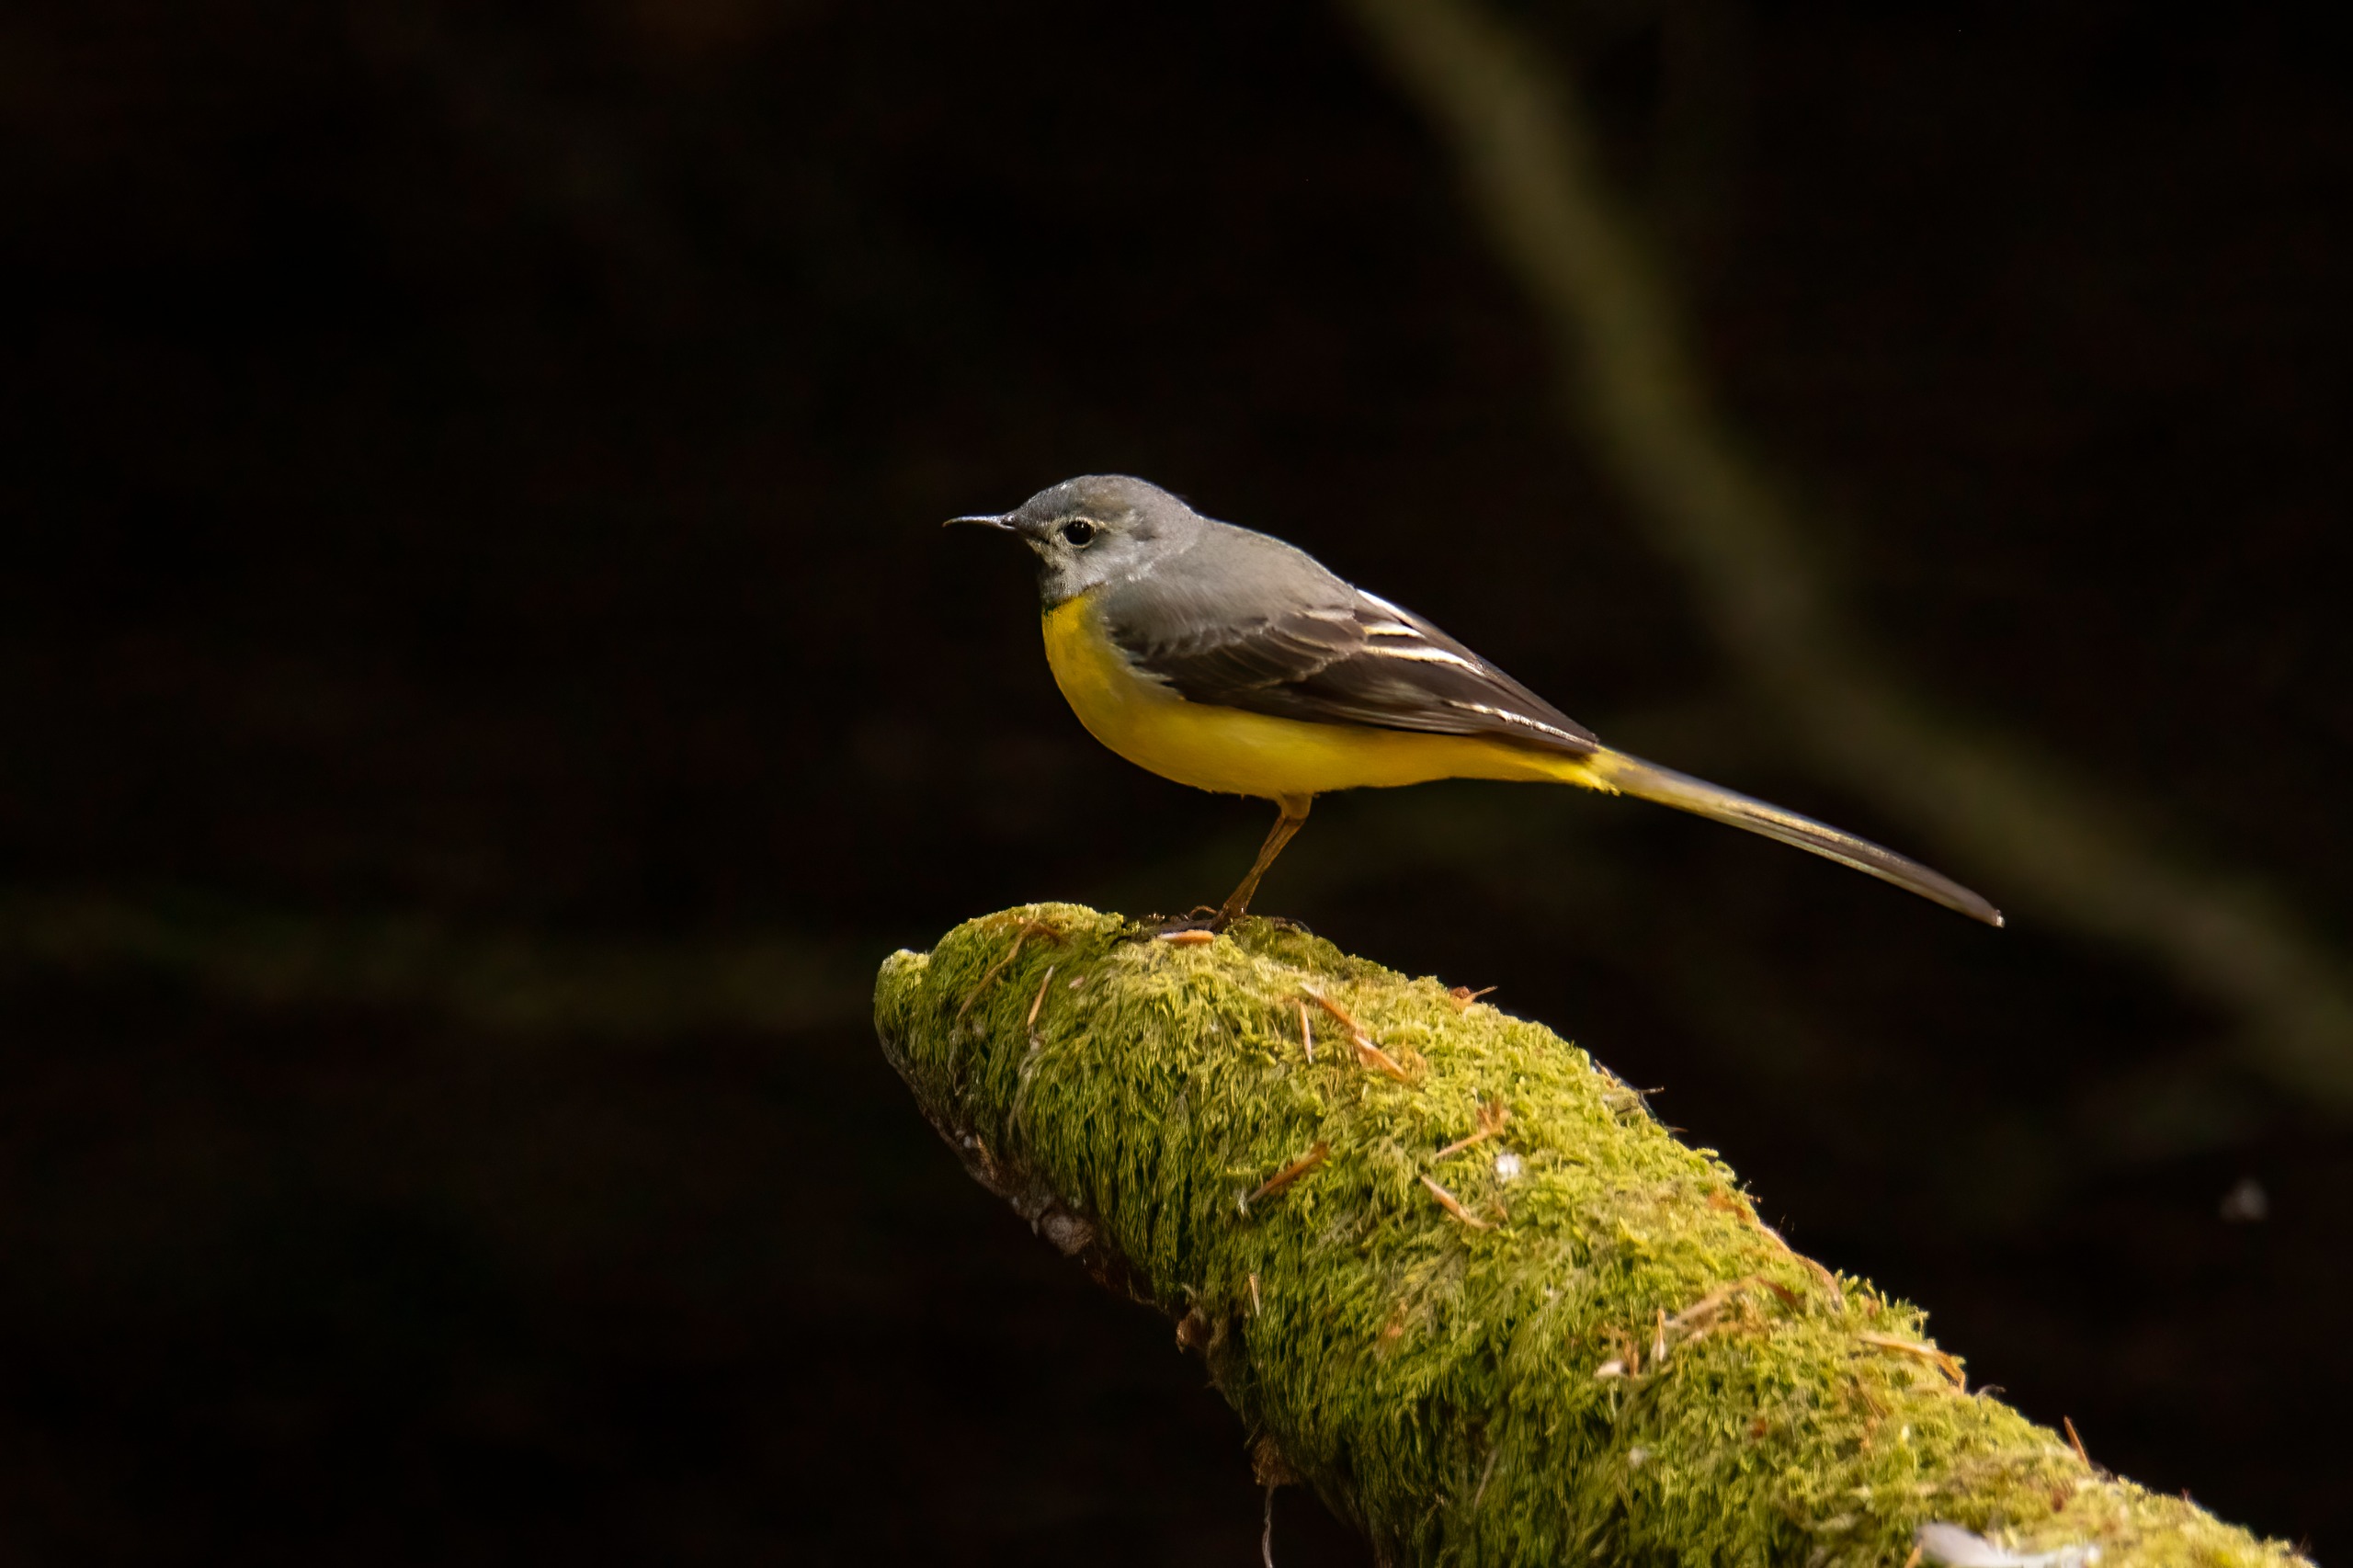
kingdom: Animalia
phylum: Chordata
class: Aves
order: Passeriformes
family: Motacillidae
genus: Motacilla
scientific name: Motacilla cinerea
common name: Bjergvipstjert
